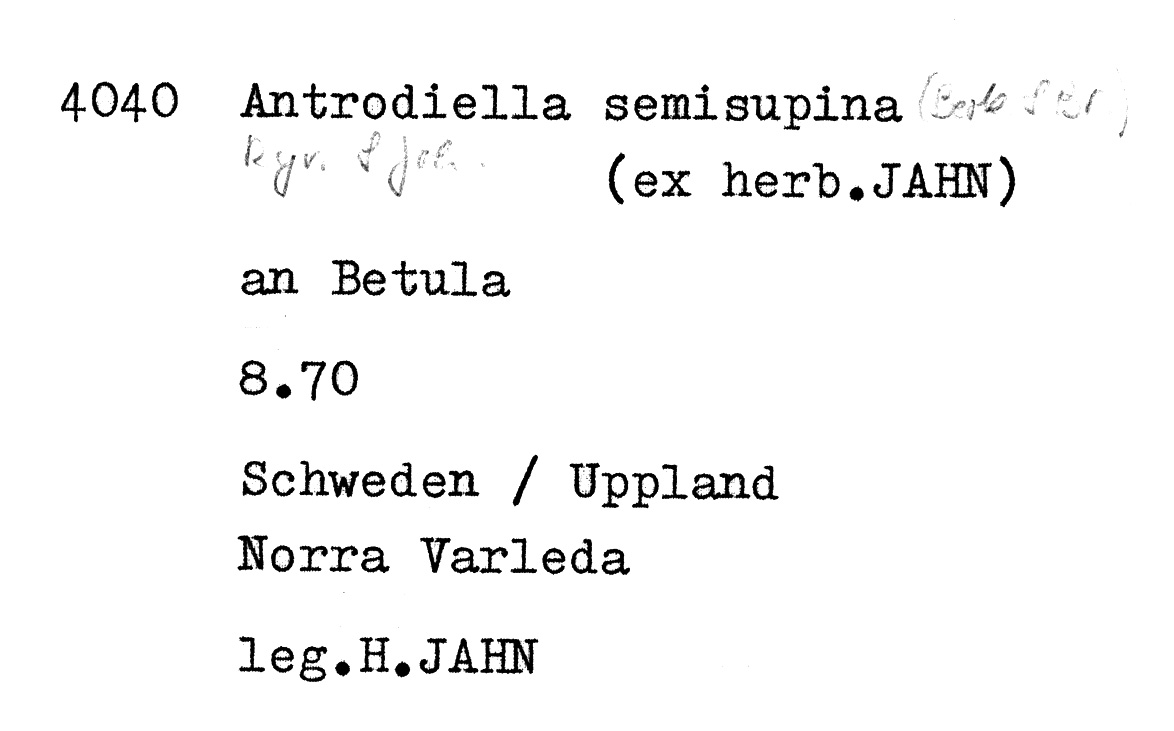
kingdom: Fungi
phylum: Basidiomycota
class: Agaricomycetes
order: Polyporales
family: Steccherinaceae
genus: Antrodiella
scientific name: Antrodiella semisupina
